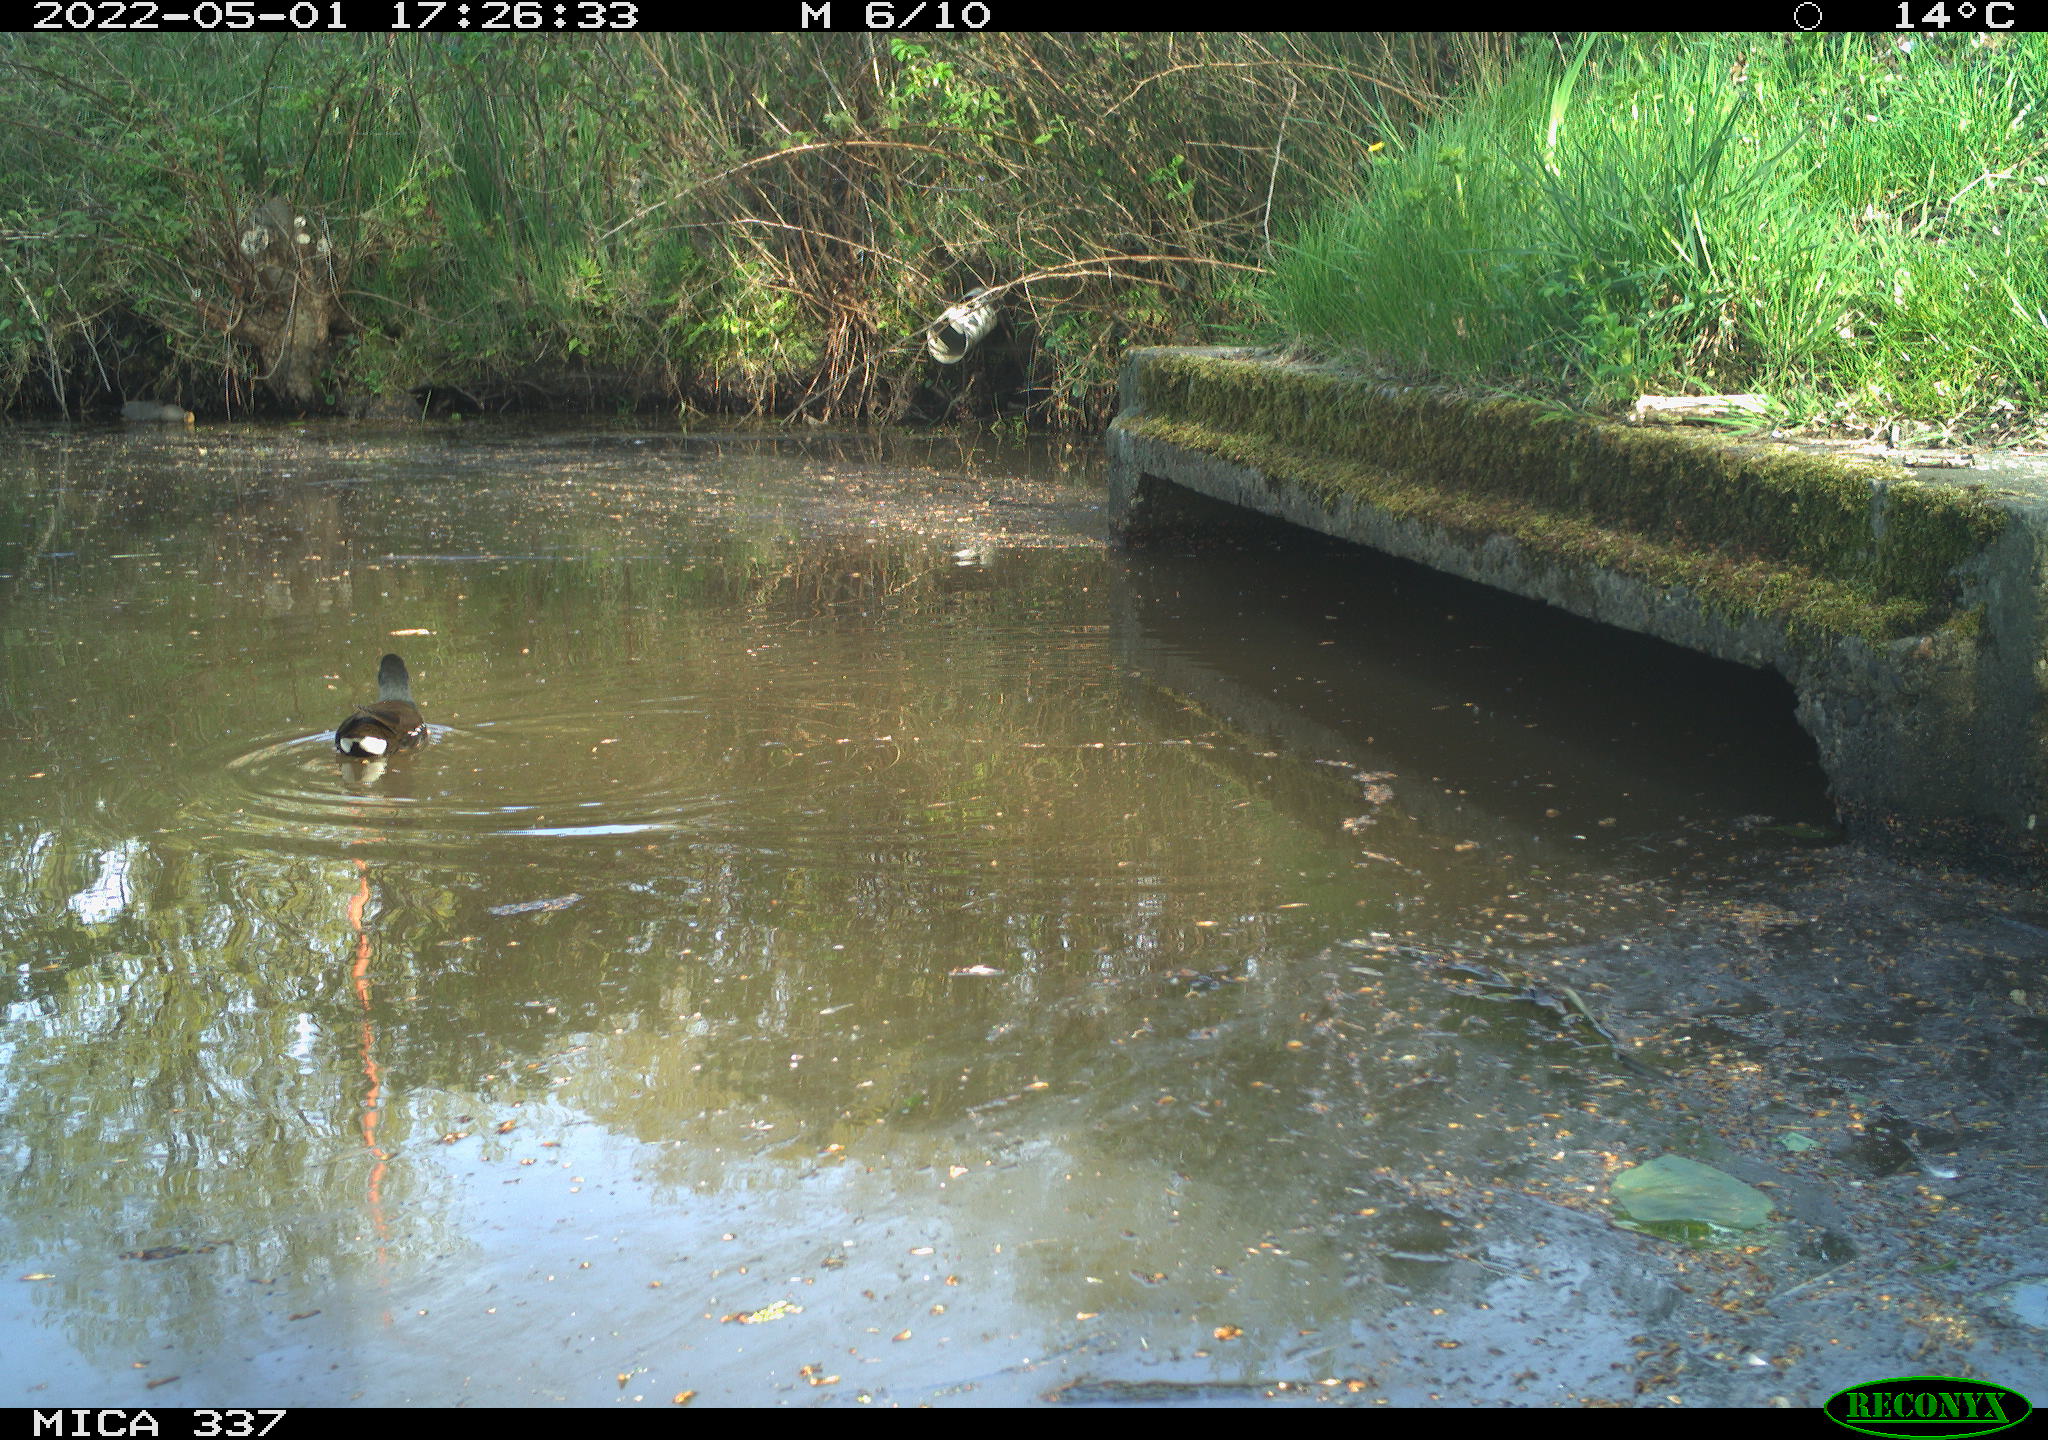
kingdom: Animalia
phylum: Chordata
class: Aves
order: Gruiformes
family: Rallidae
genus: Gallinula
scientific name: Gallinula chloropus
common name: Common moorhen
